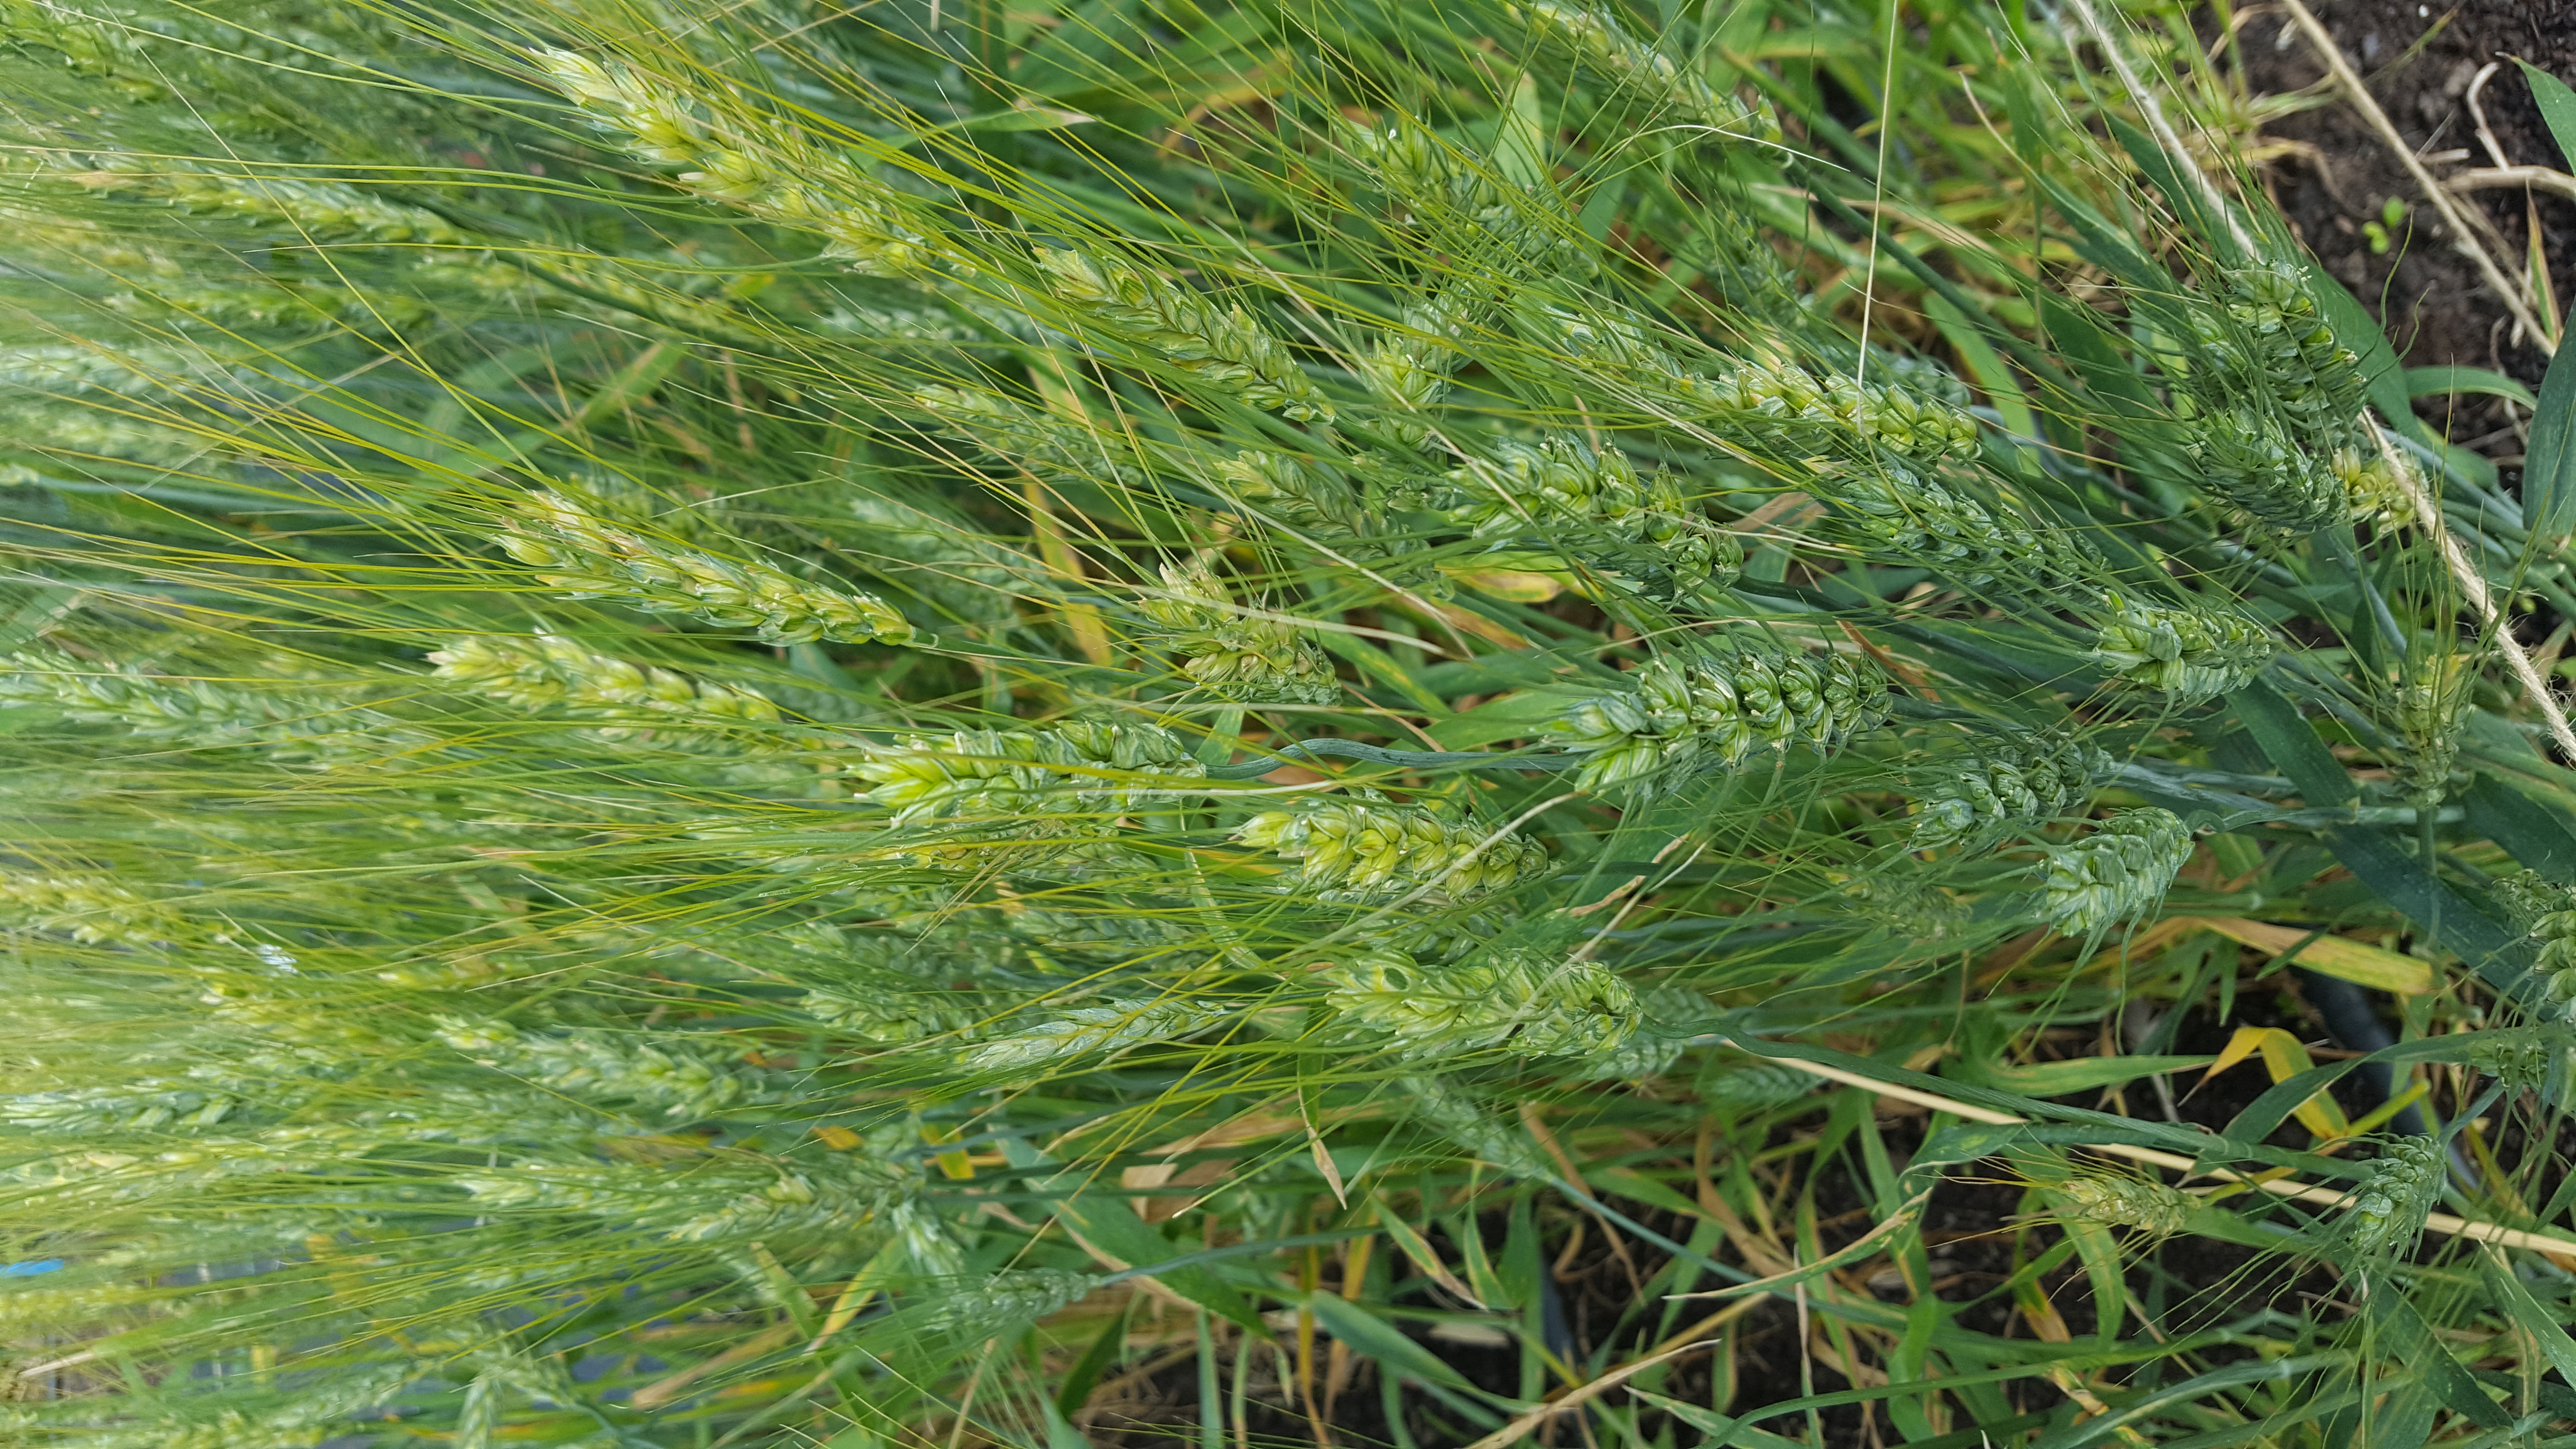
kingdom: Plantae
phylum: Tracheophyta
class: Liliopsida
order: Poales
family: Poaceae
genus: Triticum
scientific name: Triticum aestivum
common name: Common wheat
